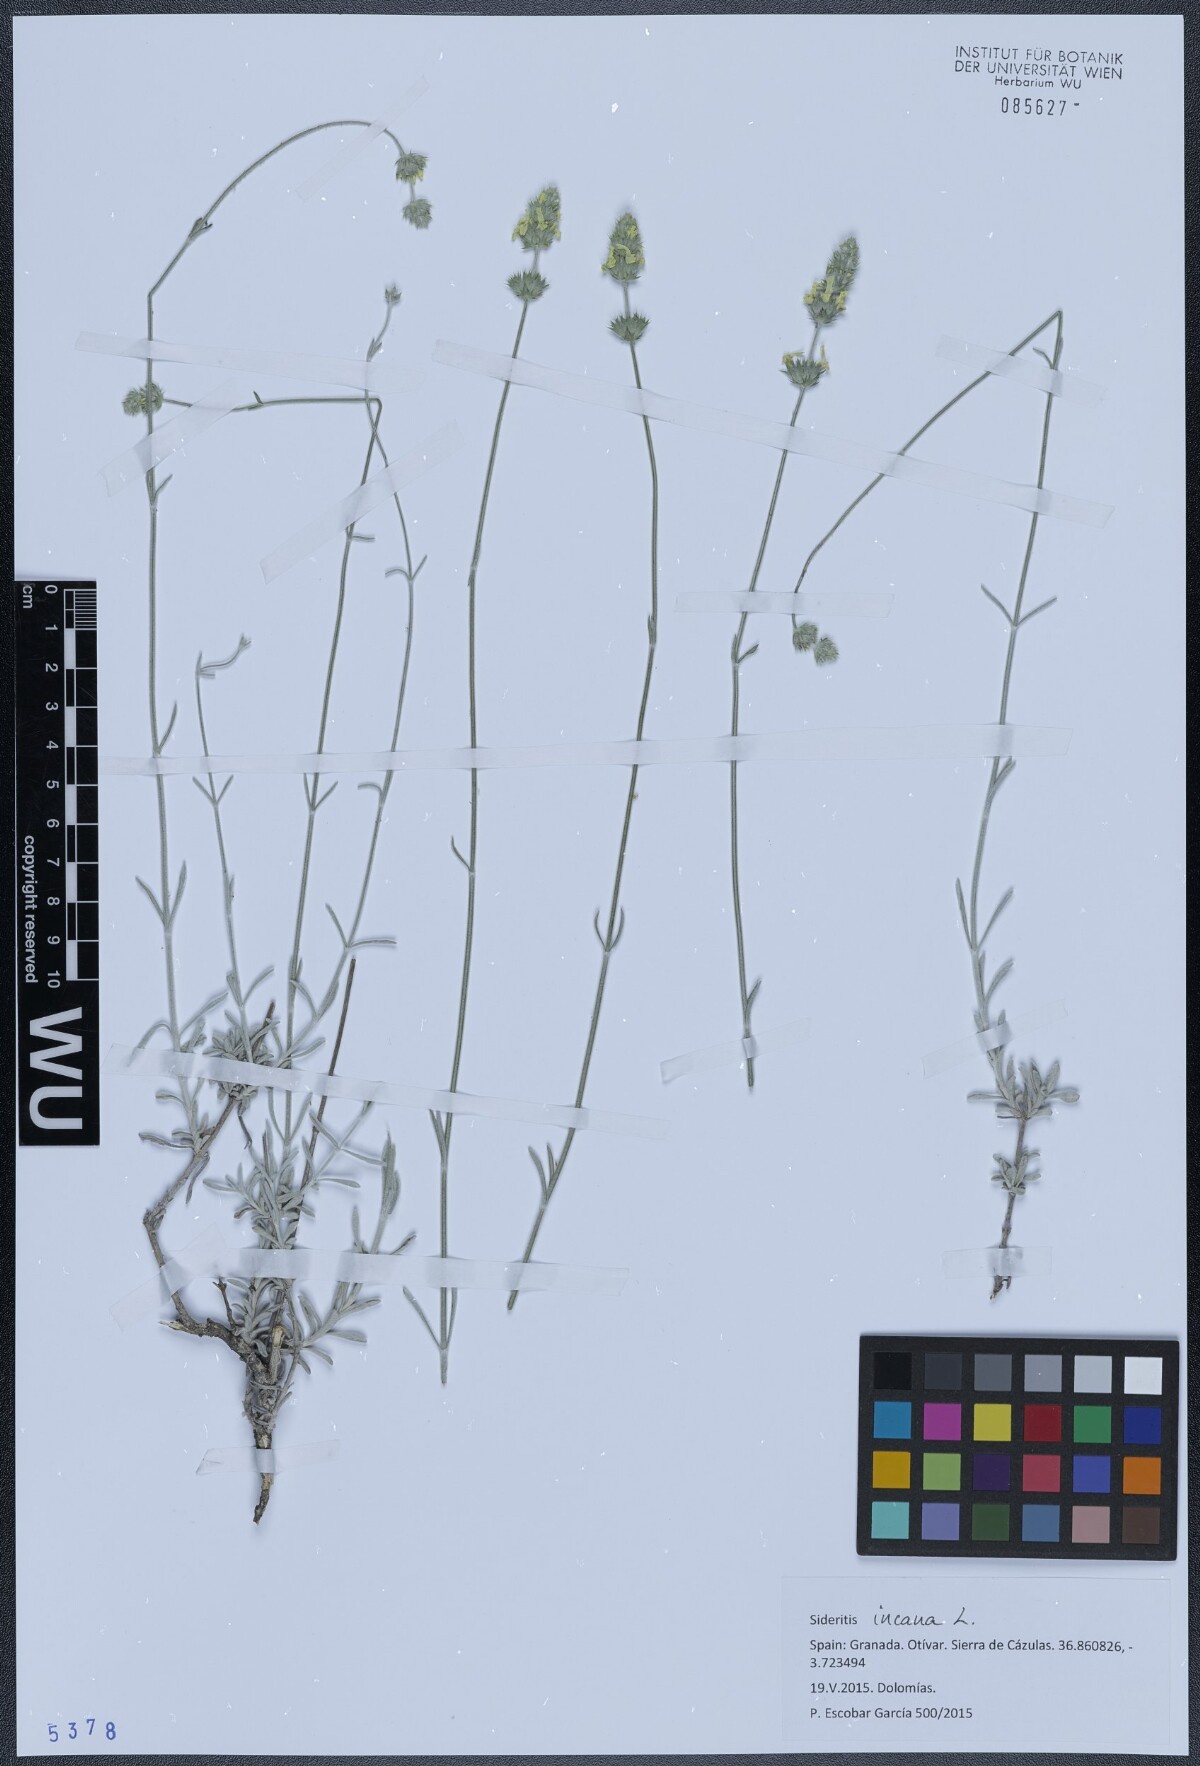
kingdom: Plantae
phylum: Tracheophyta
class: Magnoliopsida
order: Lamiales
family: Lamiaceae
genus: Sideritis
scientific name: Sideritis incana
